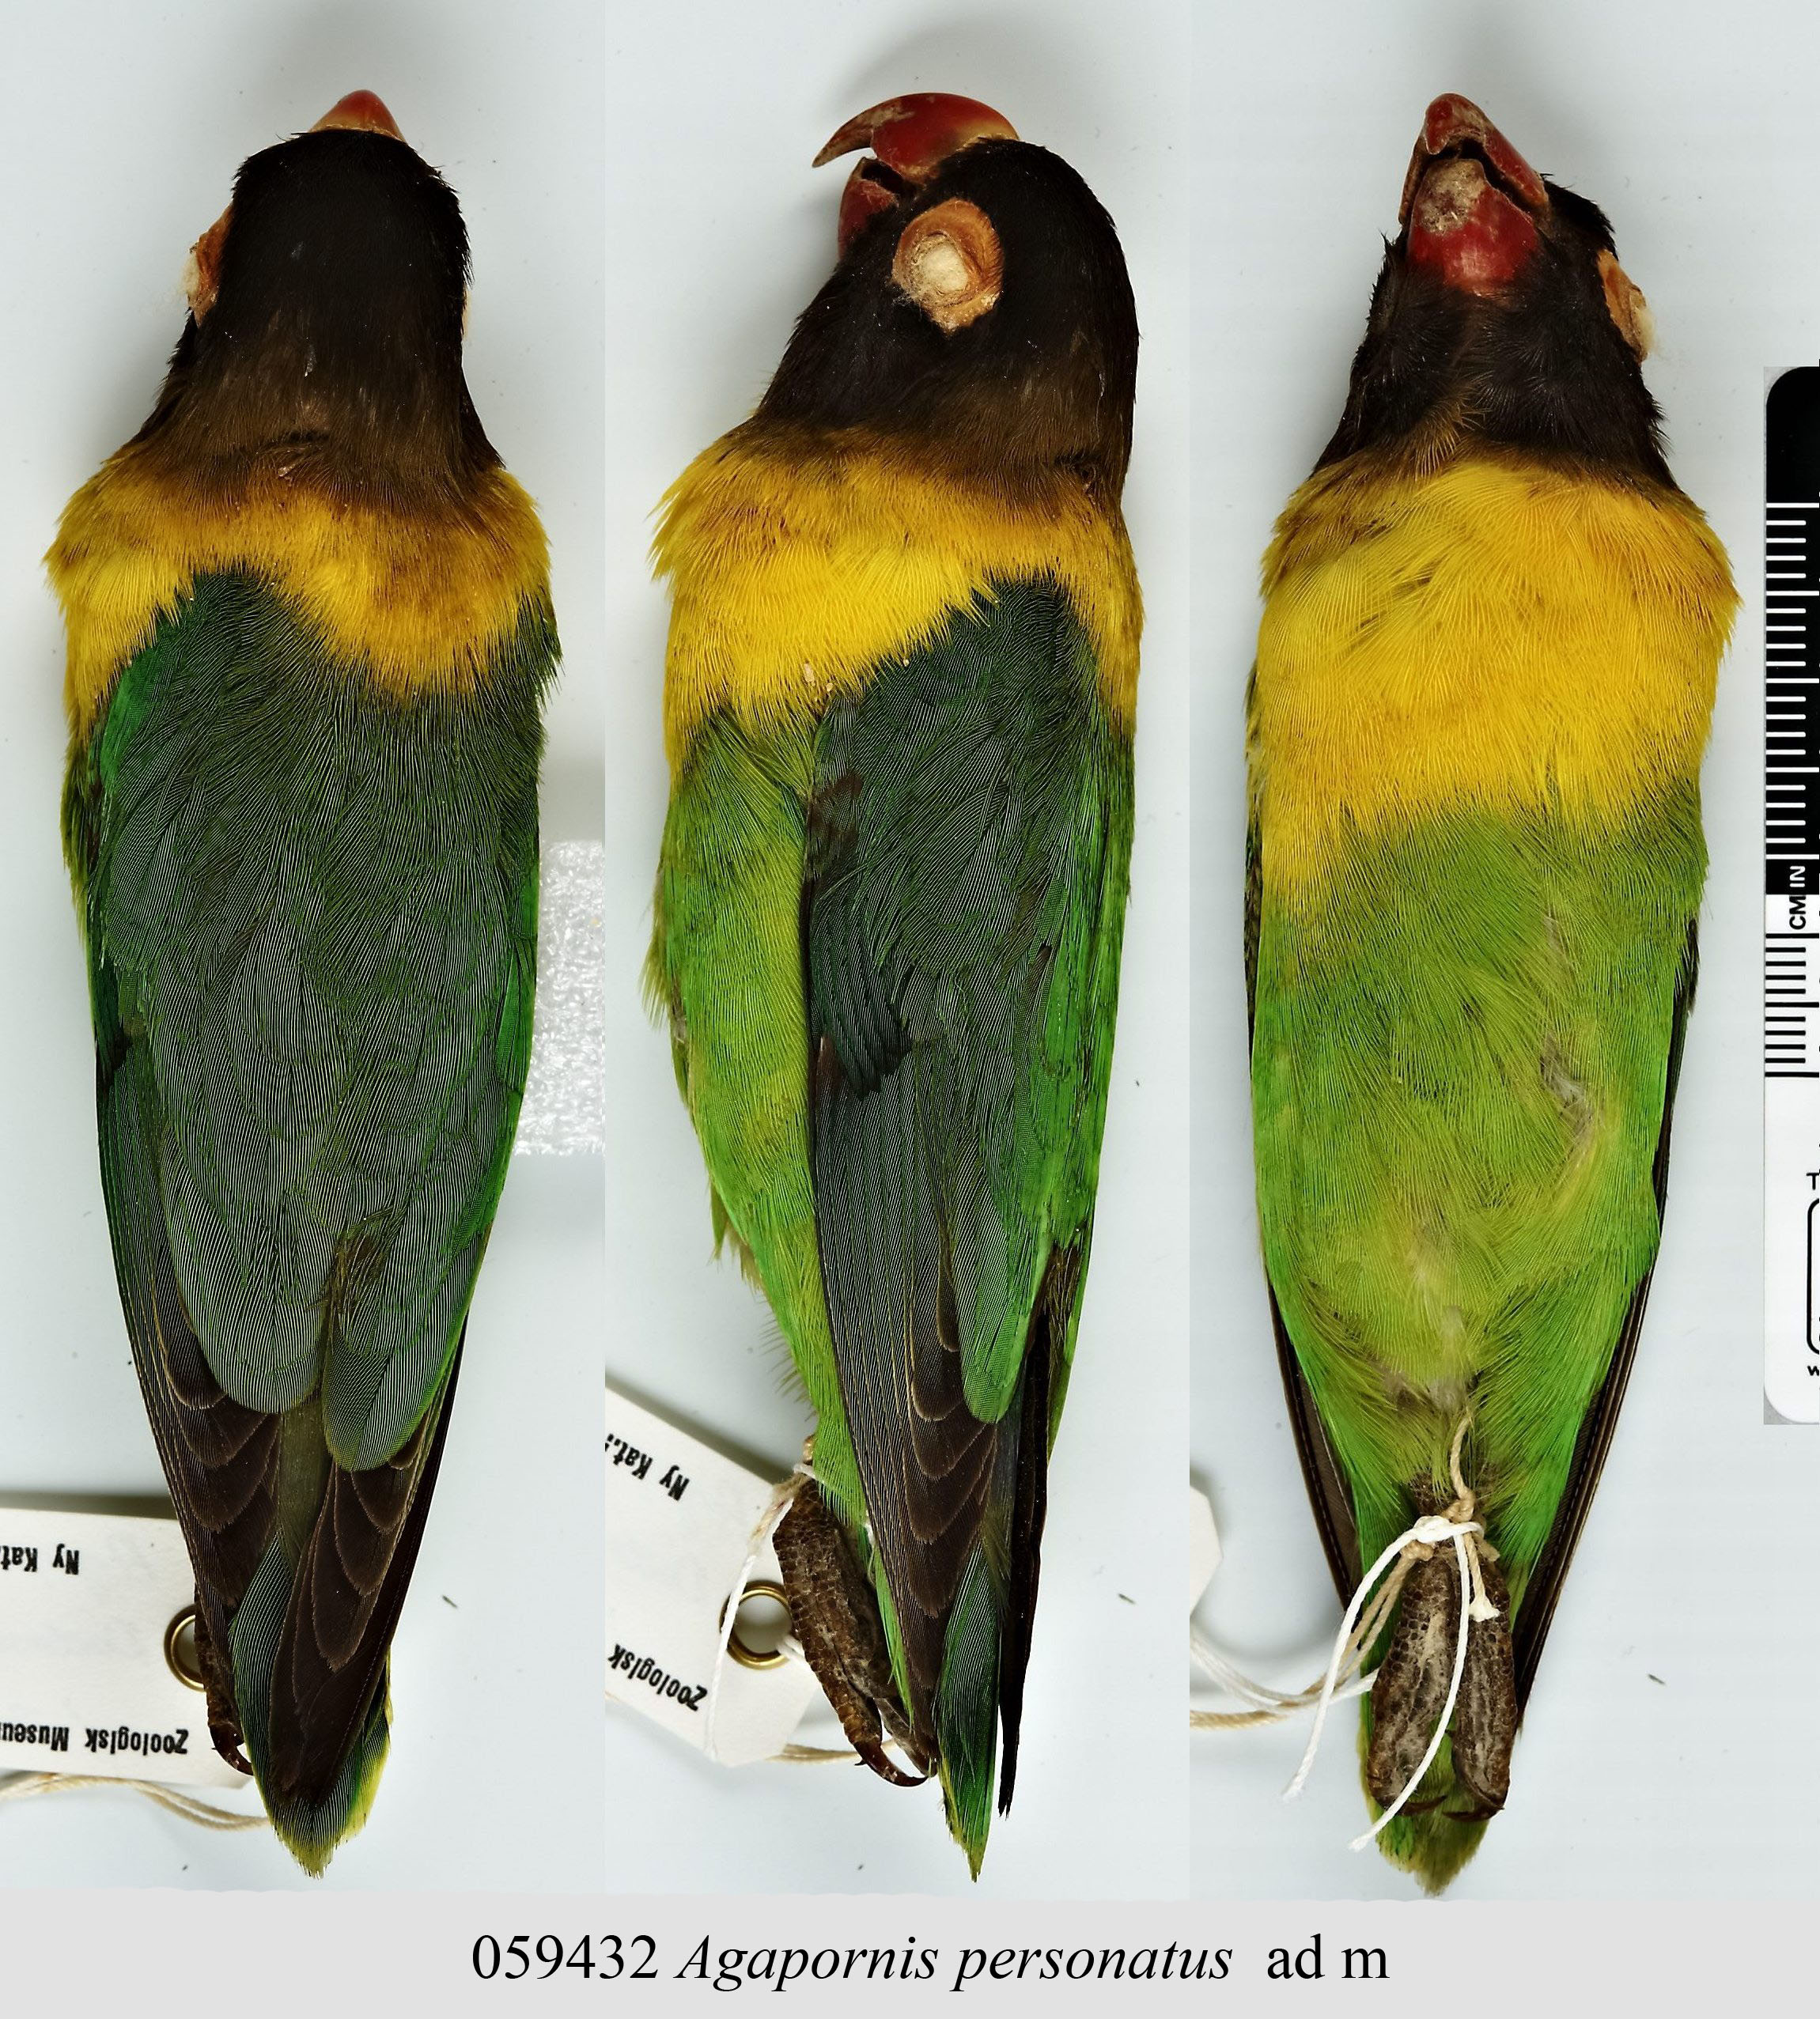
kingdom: Animalia
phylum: Chordata
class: Aves
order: Psittaciformes
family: Psittacidae
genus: Agapornis
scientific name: Agapornis personatus
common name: Yellow-collared lovebird
